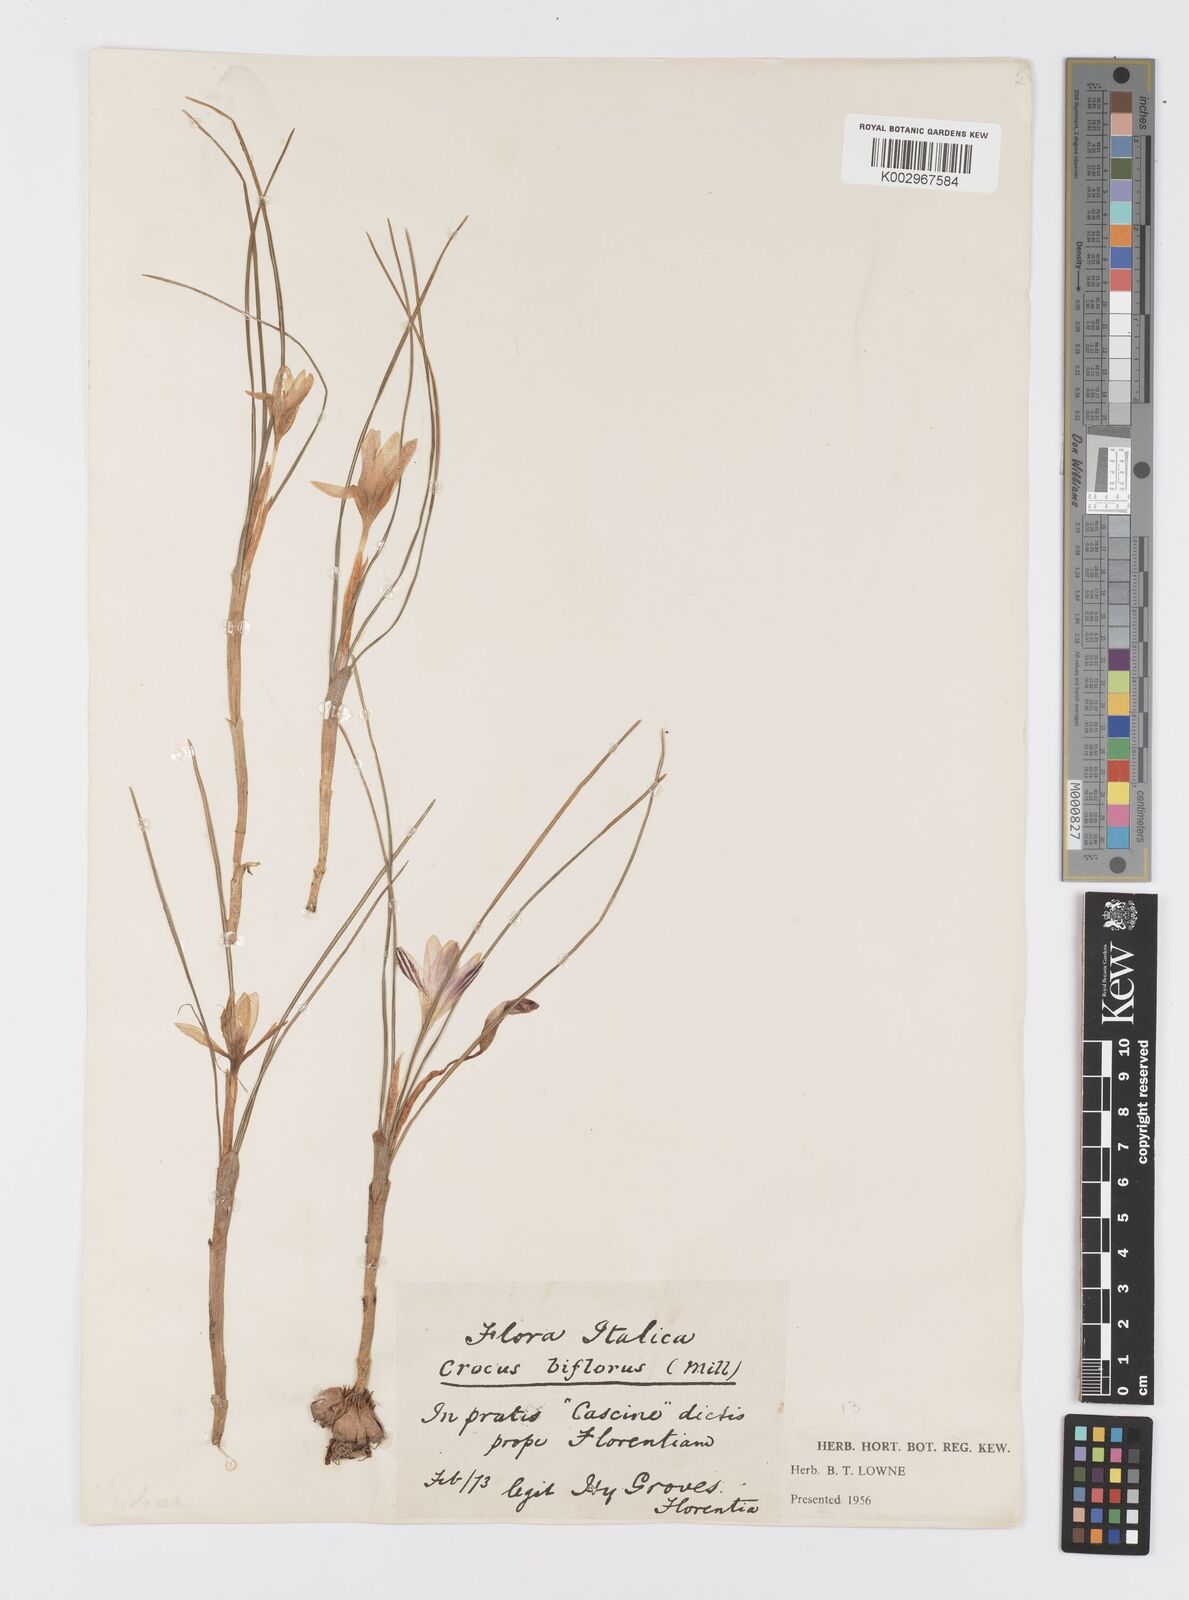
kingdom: Plantae
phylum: Tracheophyta
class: Liliopsida
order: Asparagales
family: Iridaceae
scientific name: Iridaceae
